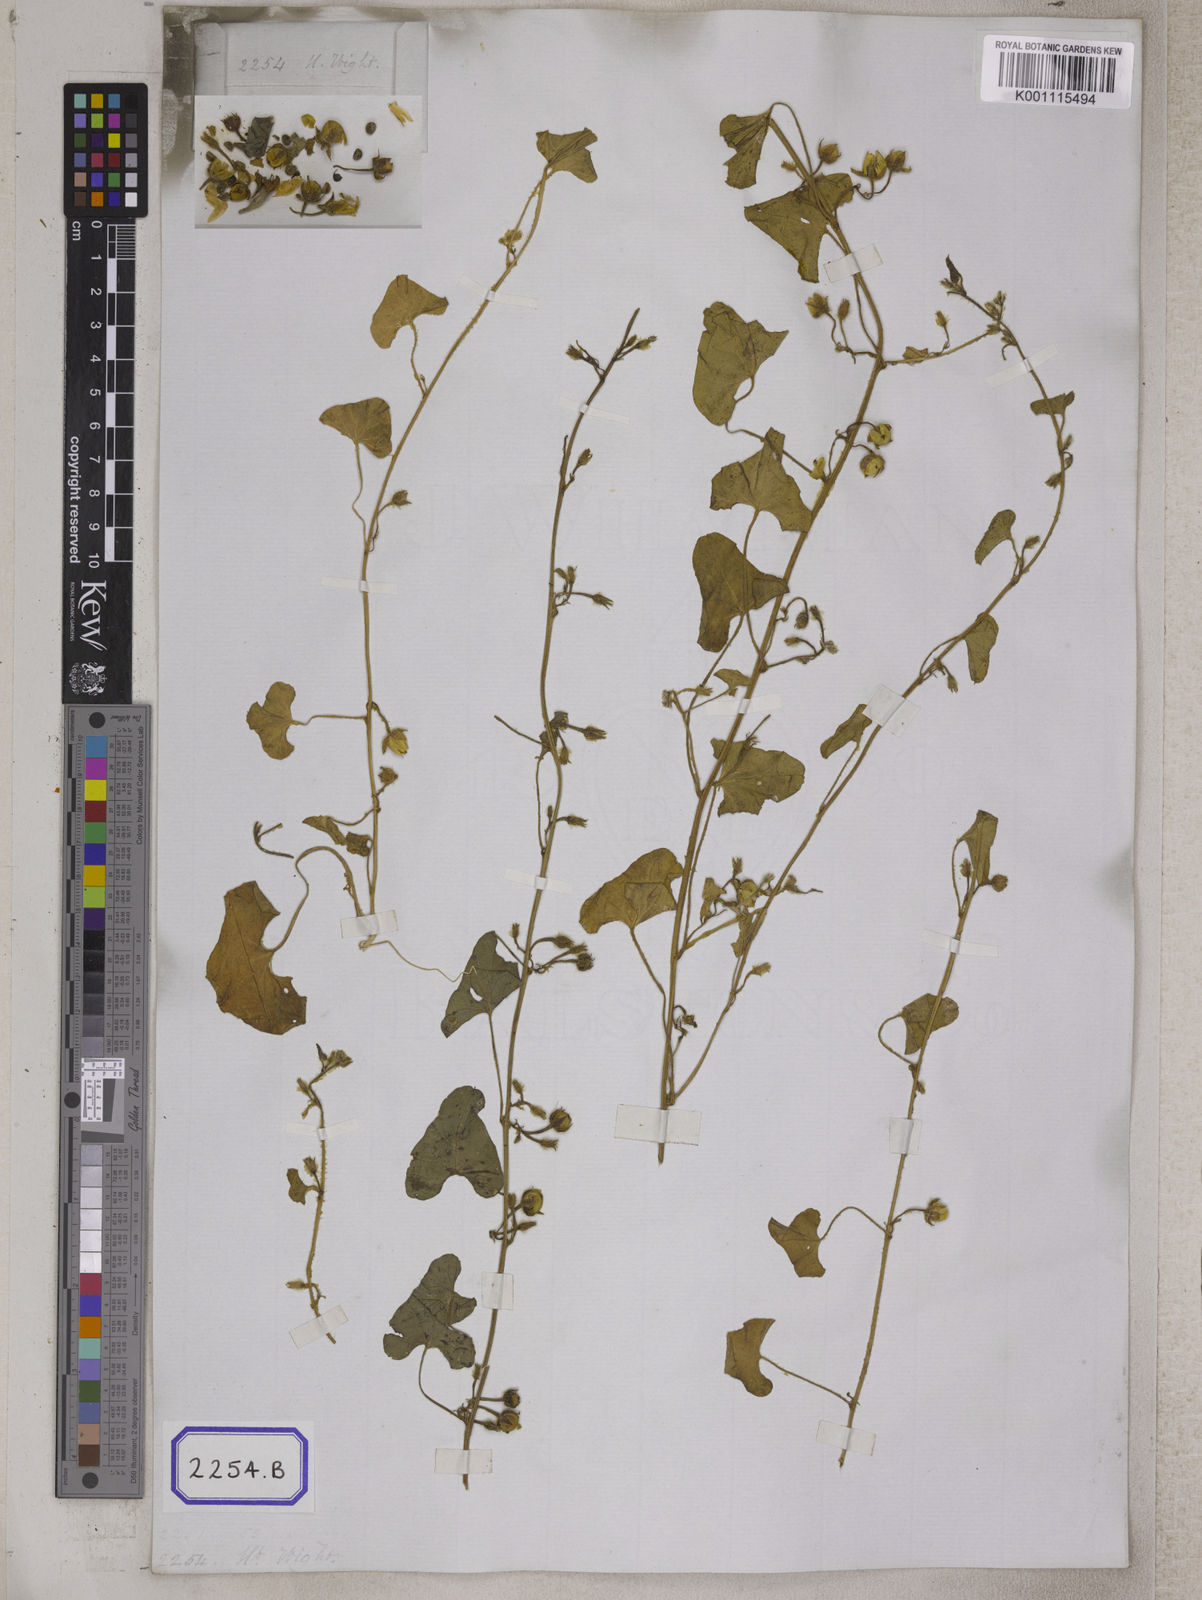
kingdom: Plantae
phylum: Tracheophyta
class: Magnoliopsida
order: Solanales
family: Convolvulaceae
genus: Convolvulus
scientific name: Convolvulus
